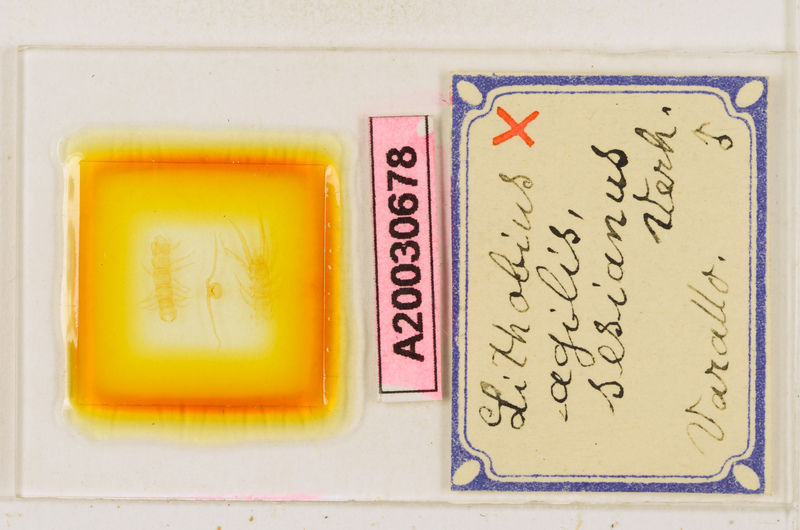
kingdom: Animalia
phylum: Arthropoda
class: Chilopoda
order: Lithobiomorpha
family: Lithobiidae
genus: Lithobius
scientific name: Lithobius agilis
